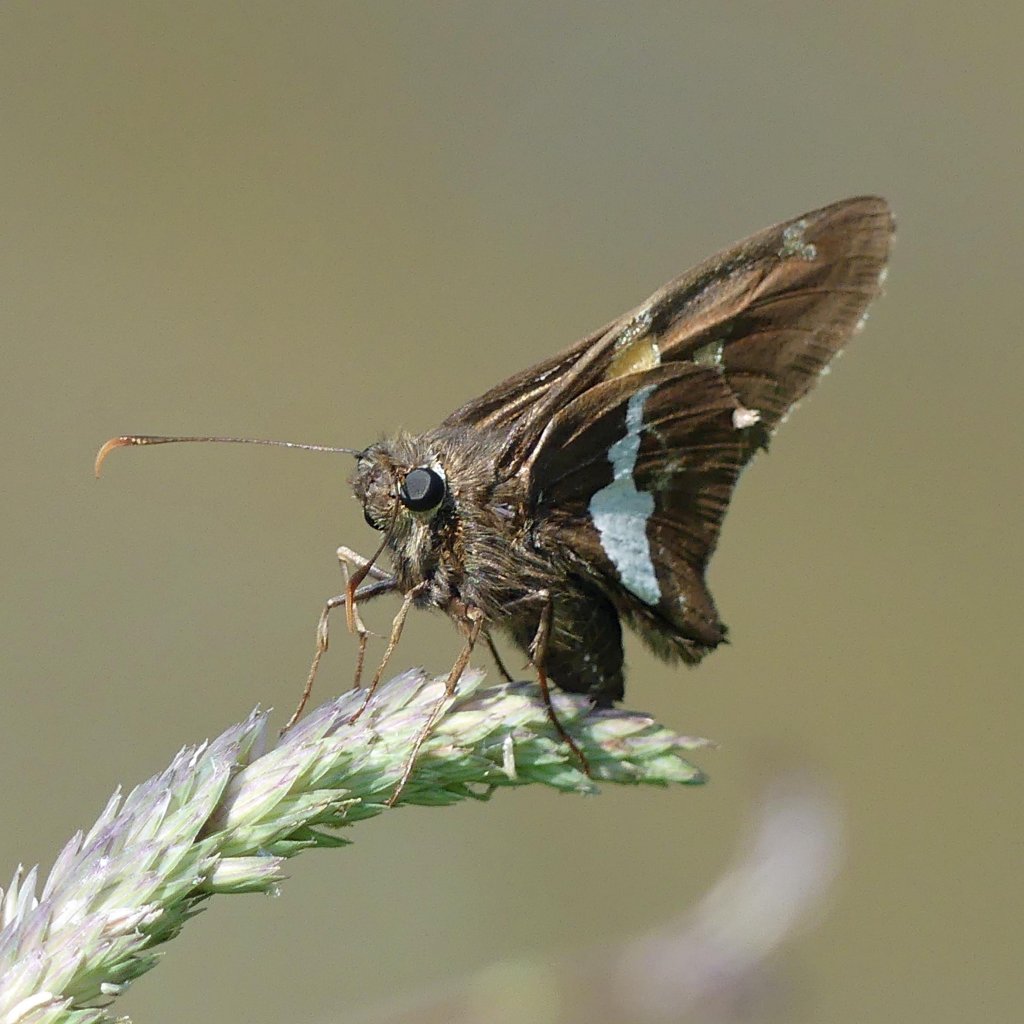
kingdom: Animalia
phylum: Arthropoda
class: Insecta
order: Lepidoptera
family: Hesperiidae
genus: Epargyreus
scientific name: Epargyreus clarus
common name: Silver-spotted Skipper
